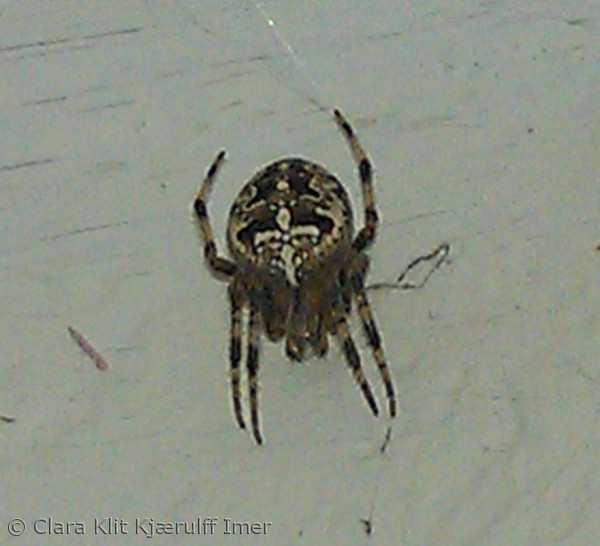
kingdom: Animalia
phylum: Arthropoda
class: Arachnida
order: Araneae
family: Araneidae
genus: Araneus
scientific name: Araneus diadematus
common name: Korsedderkop
